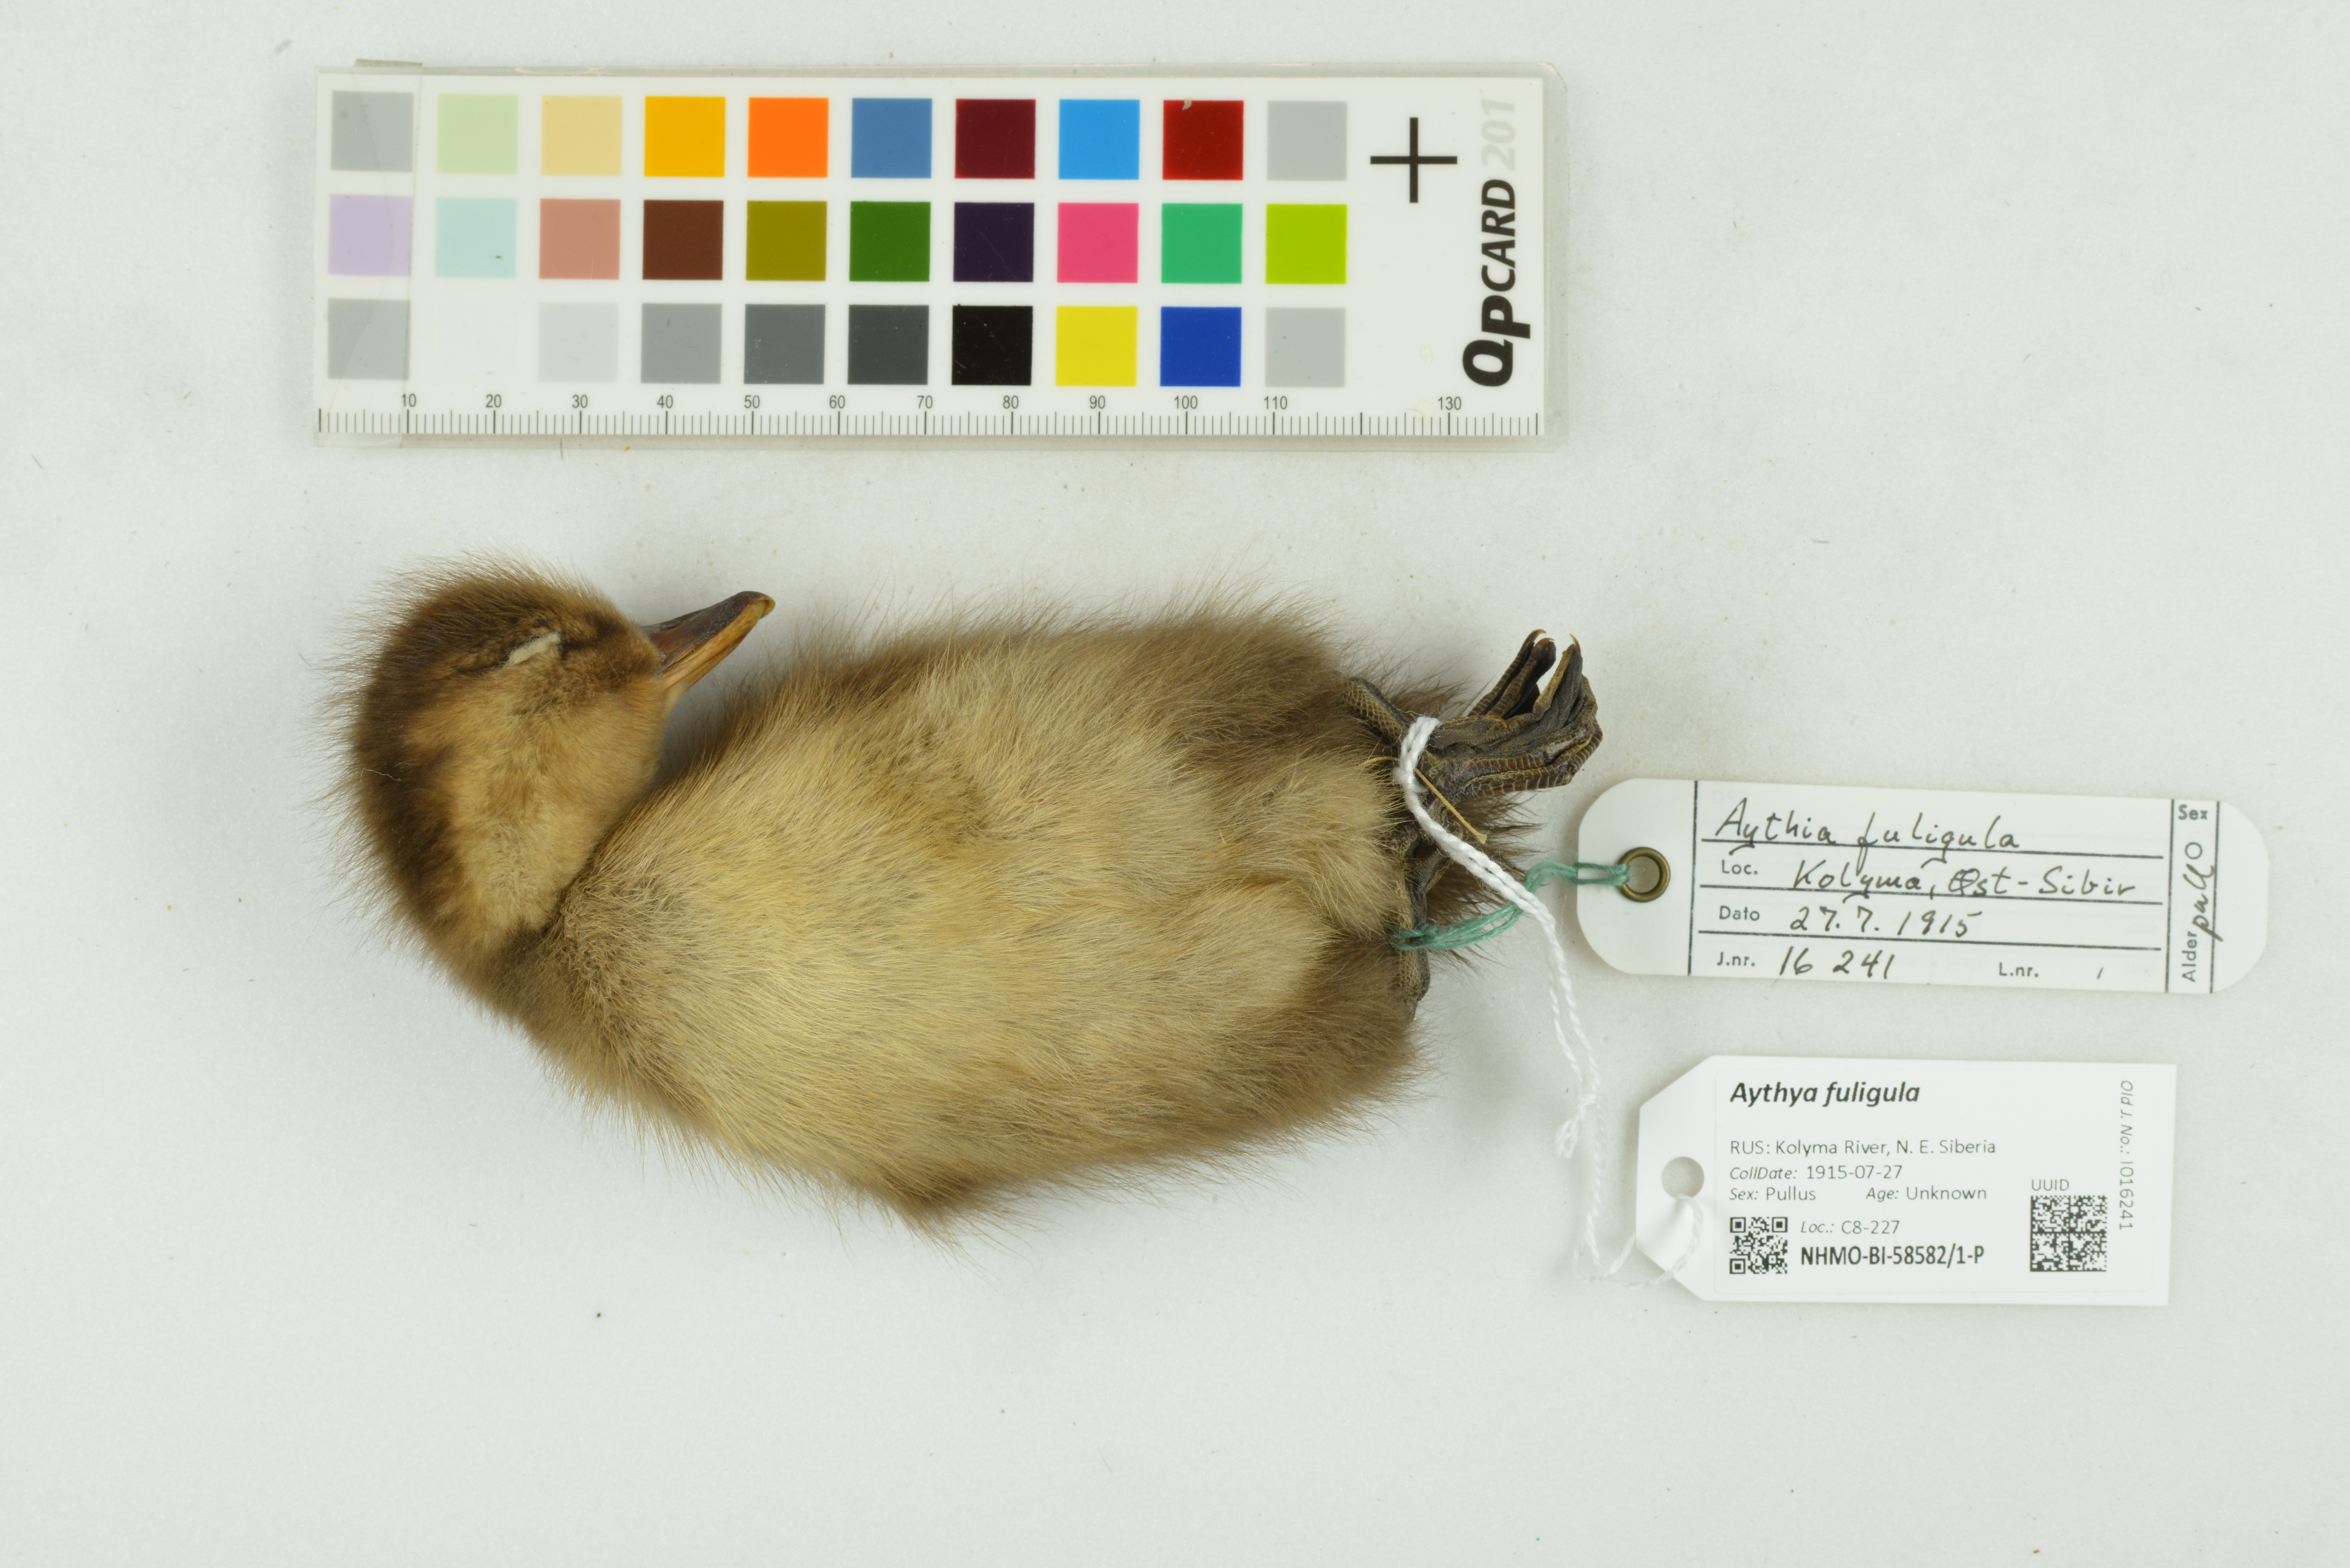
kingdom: Animalia
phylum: Chordata
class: Aves
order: Anseriformes
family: Anatidae
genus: Aythya
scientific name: Aythya fuligula
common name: Tufted duck
